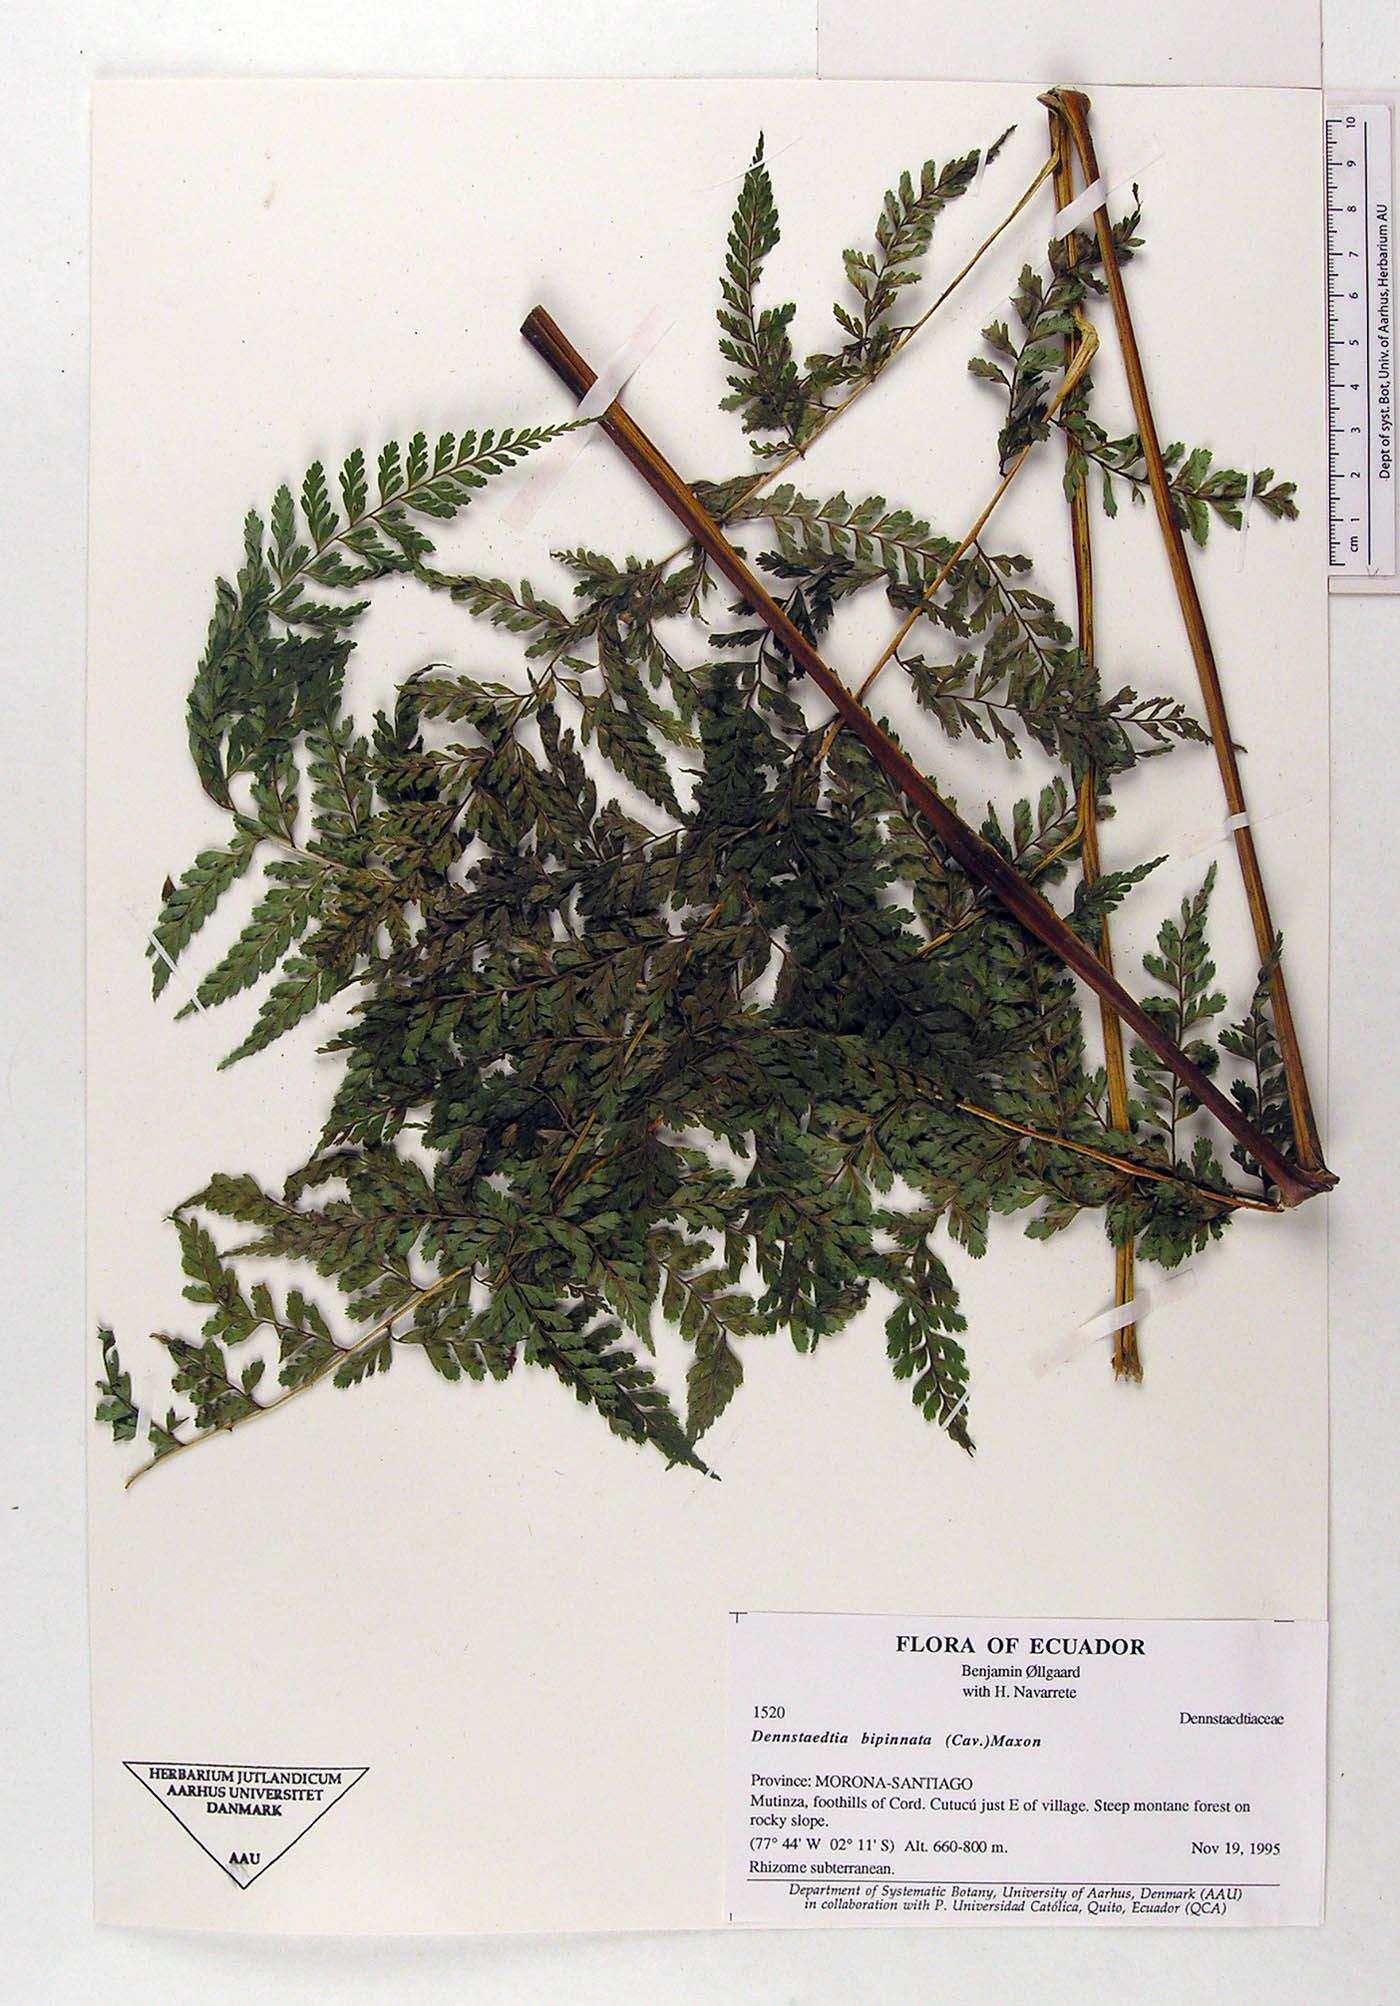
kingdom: Plantae
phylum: Tracheophyta
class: Polypodiopsida
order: Polypodiales
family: Dennstaedtiaceae
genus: Mucura
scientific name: Mucura bipinnata
